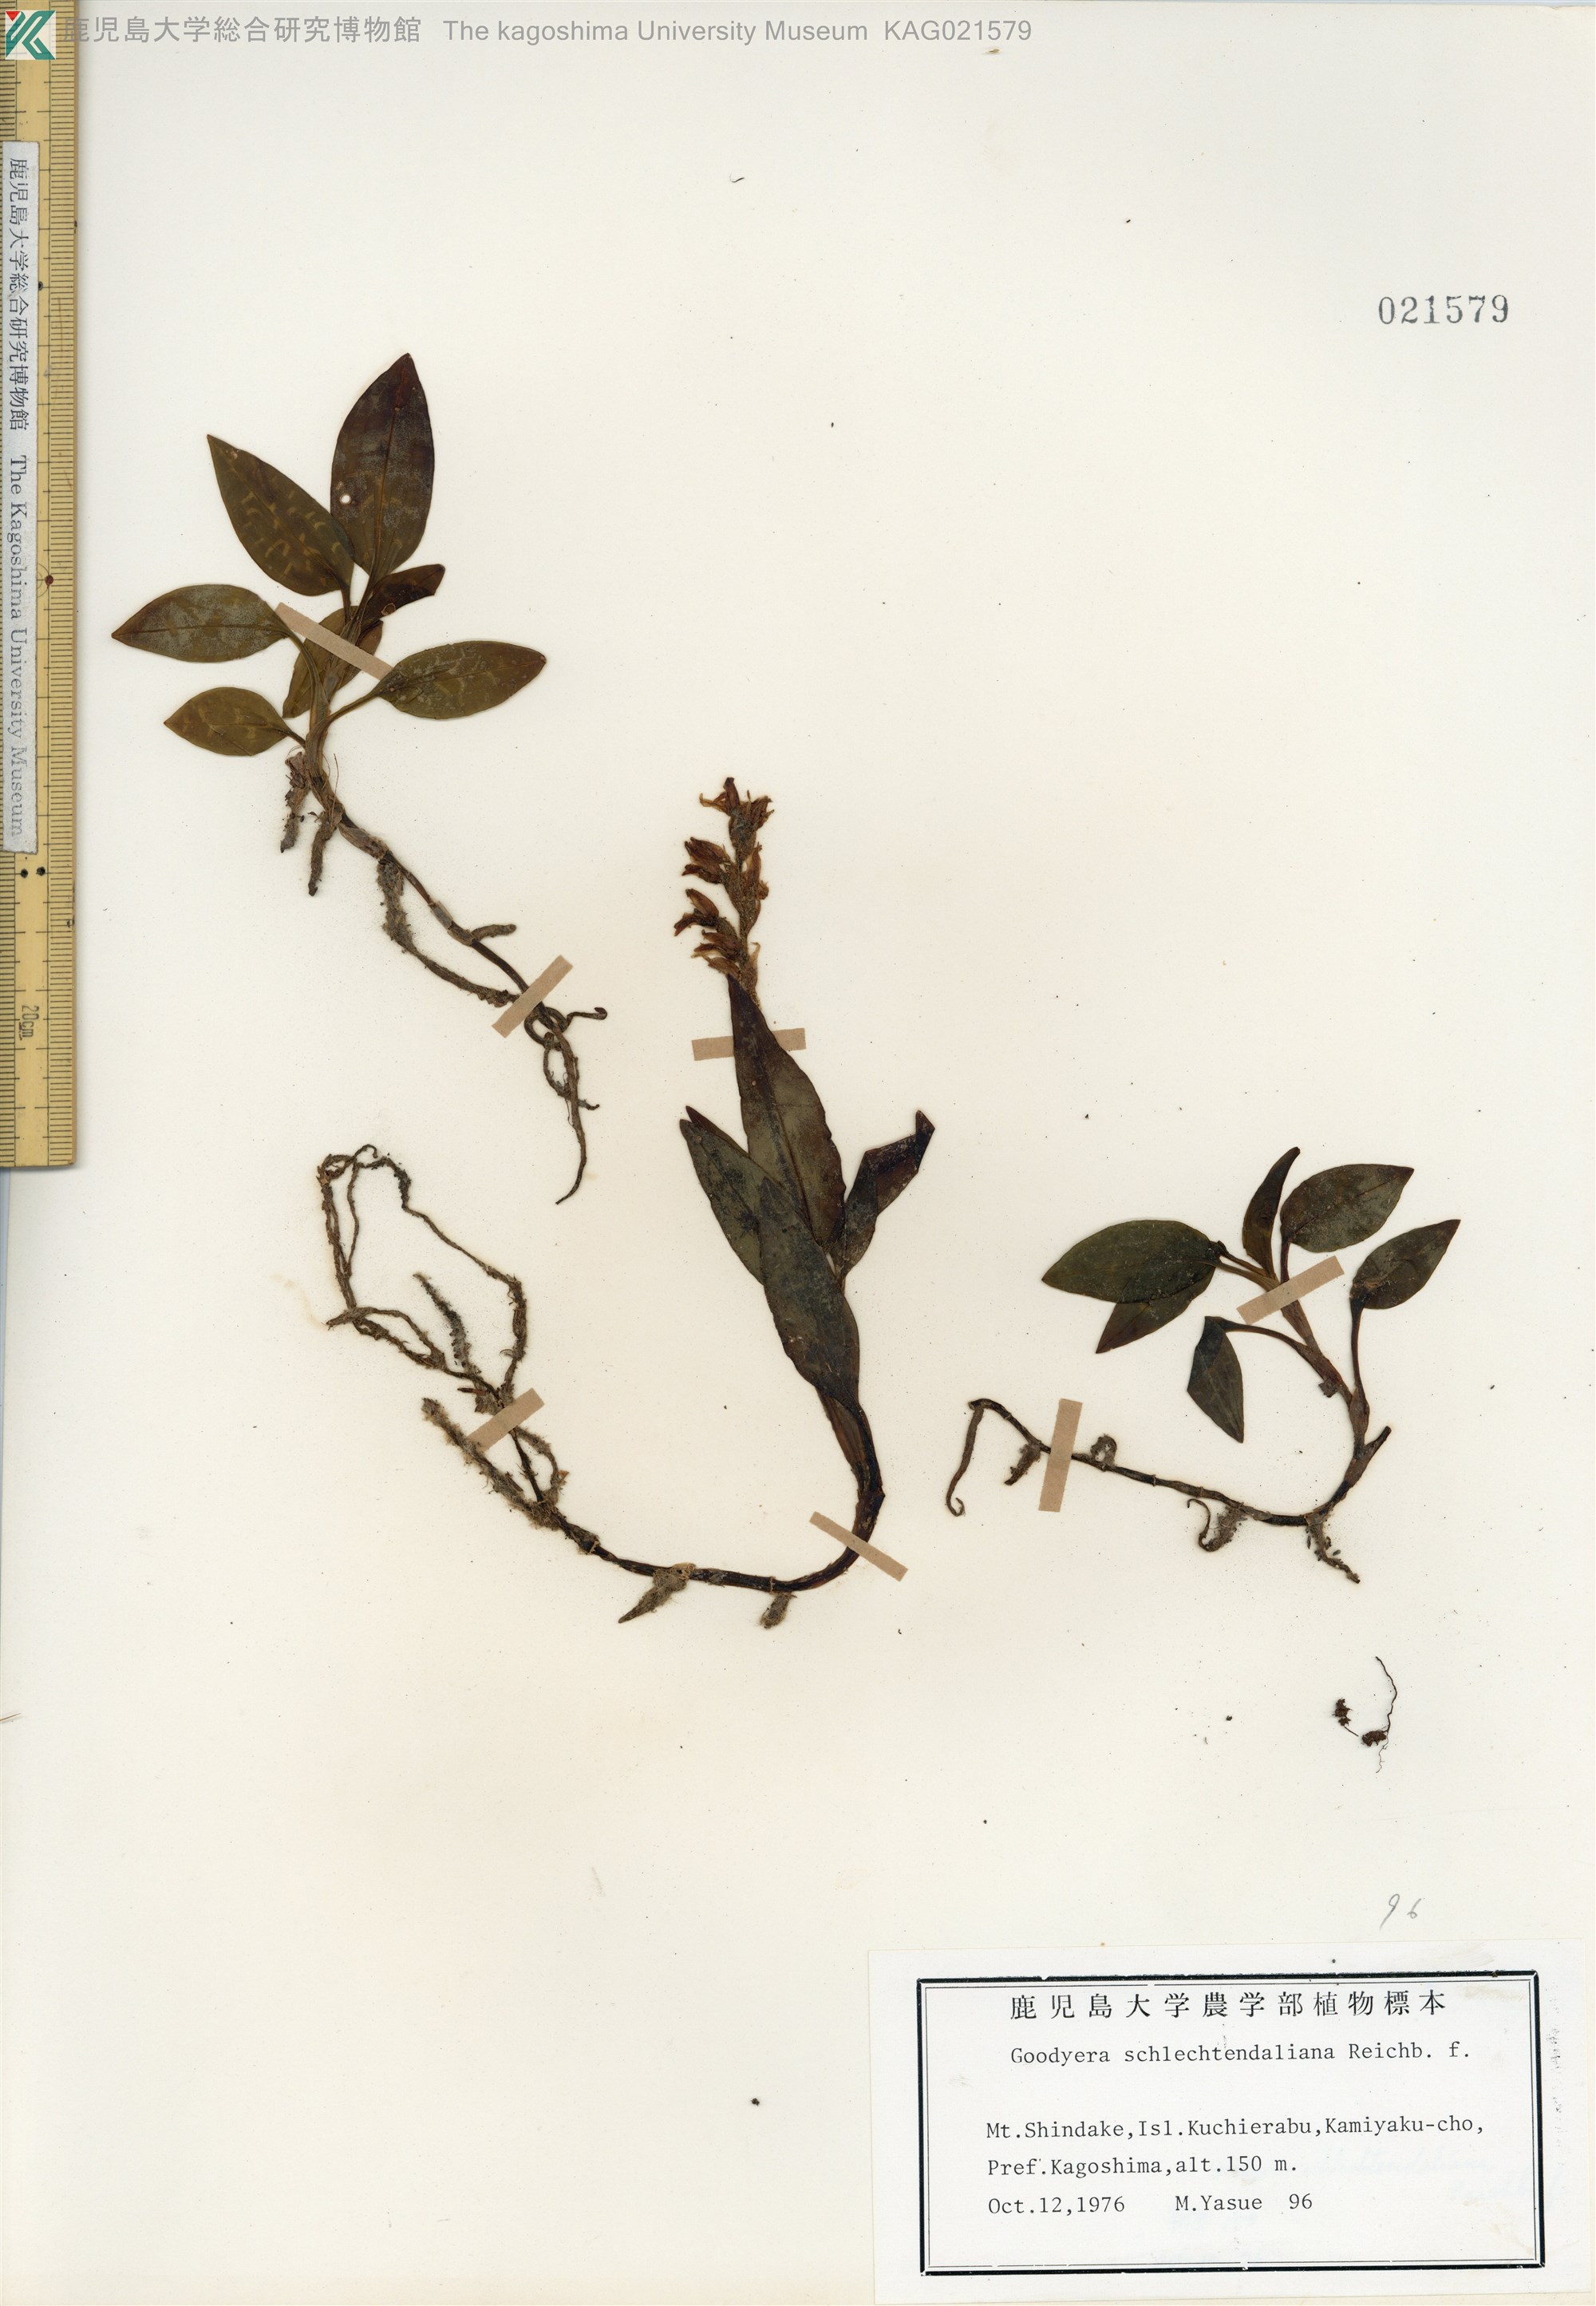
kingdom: Plantae
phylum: Tracheophyta
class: Liliopsida
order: Asparagales
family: Orchidaceae
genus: Goodyera
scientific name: Goodyera schlechtendaliana
